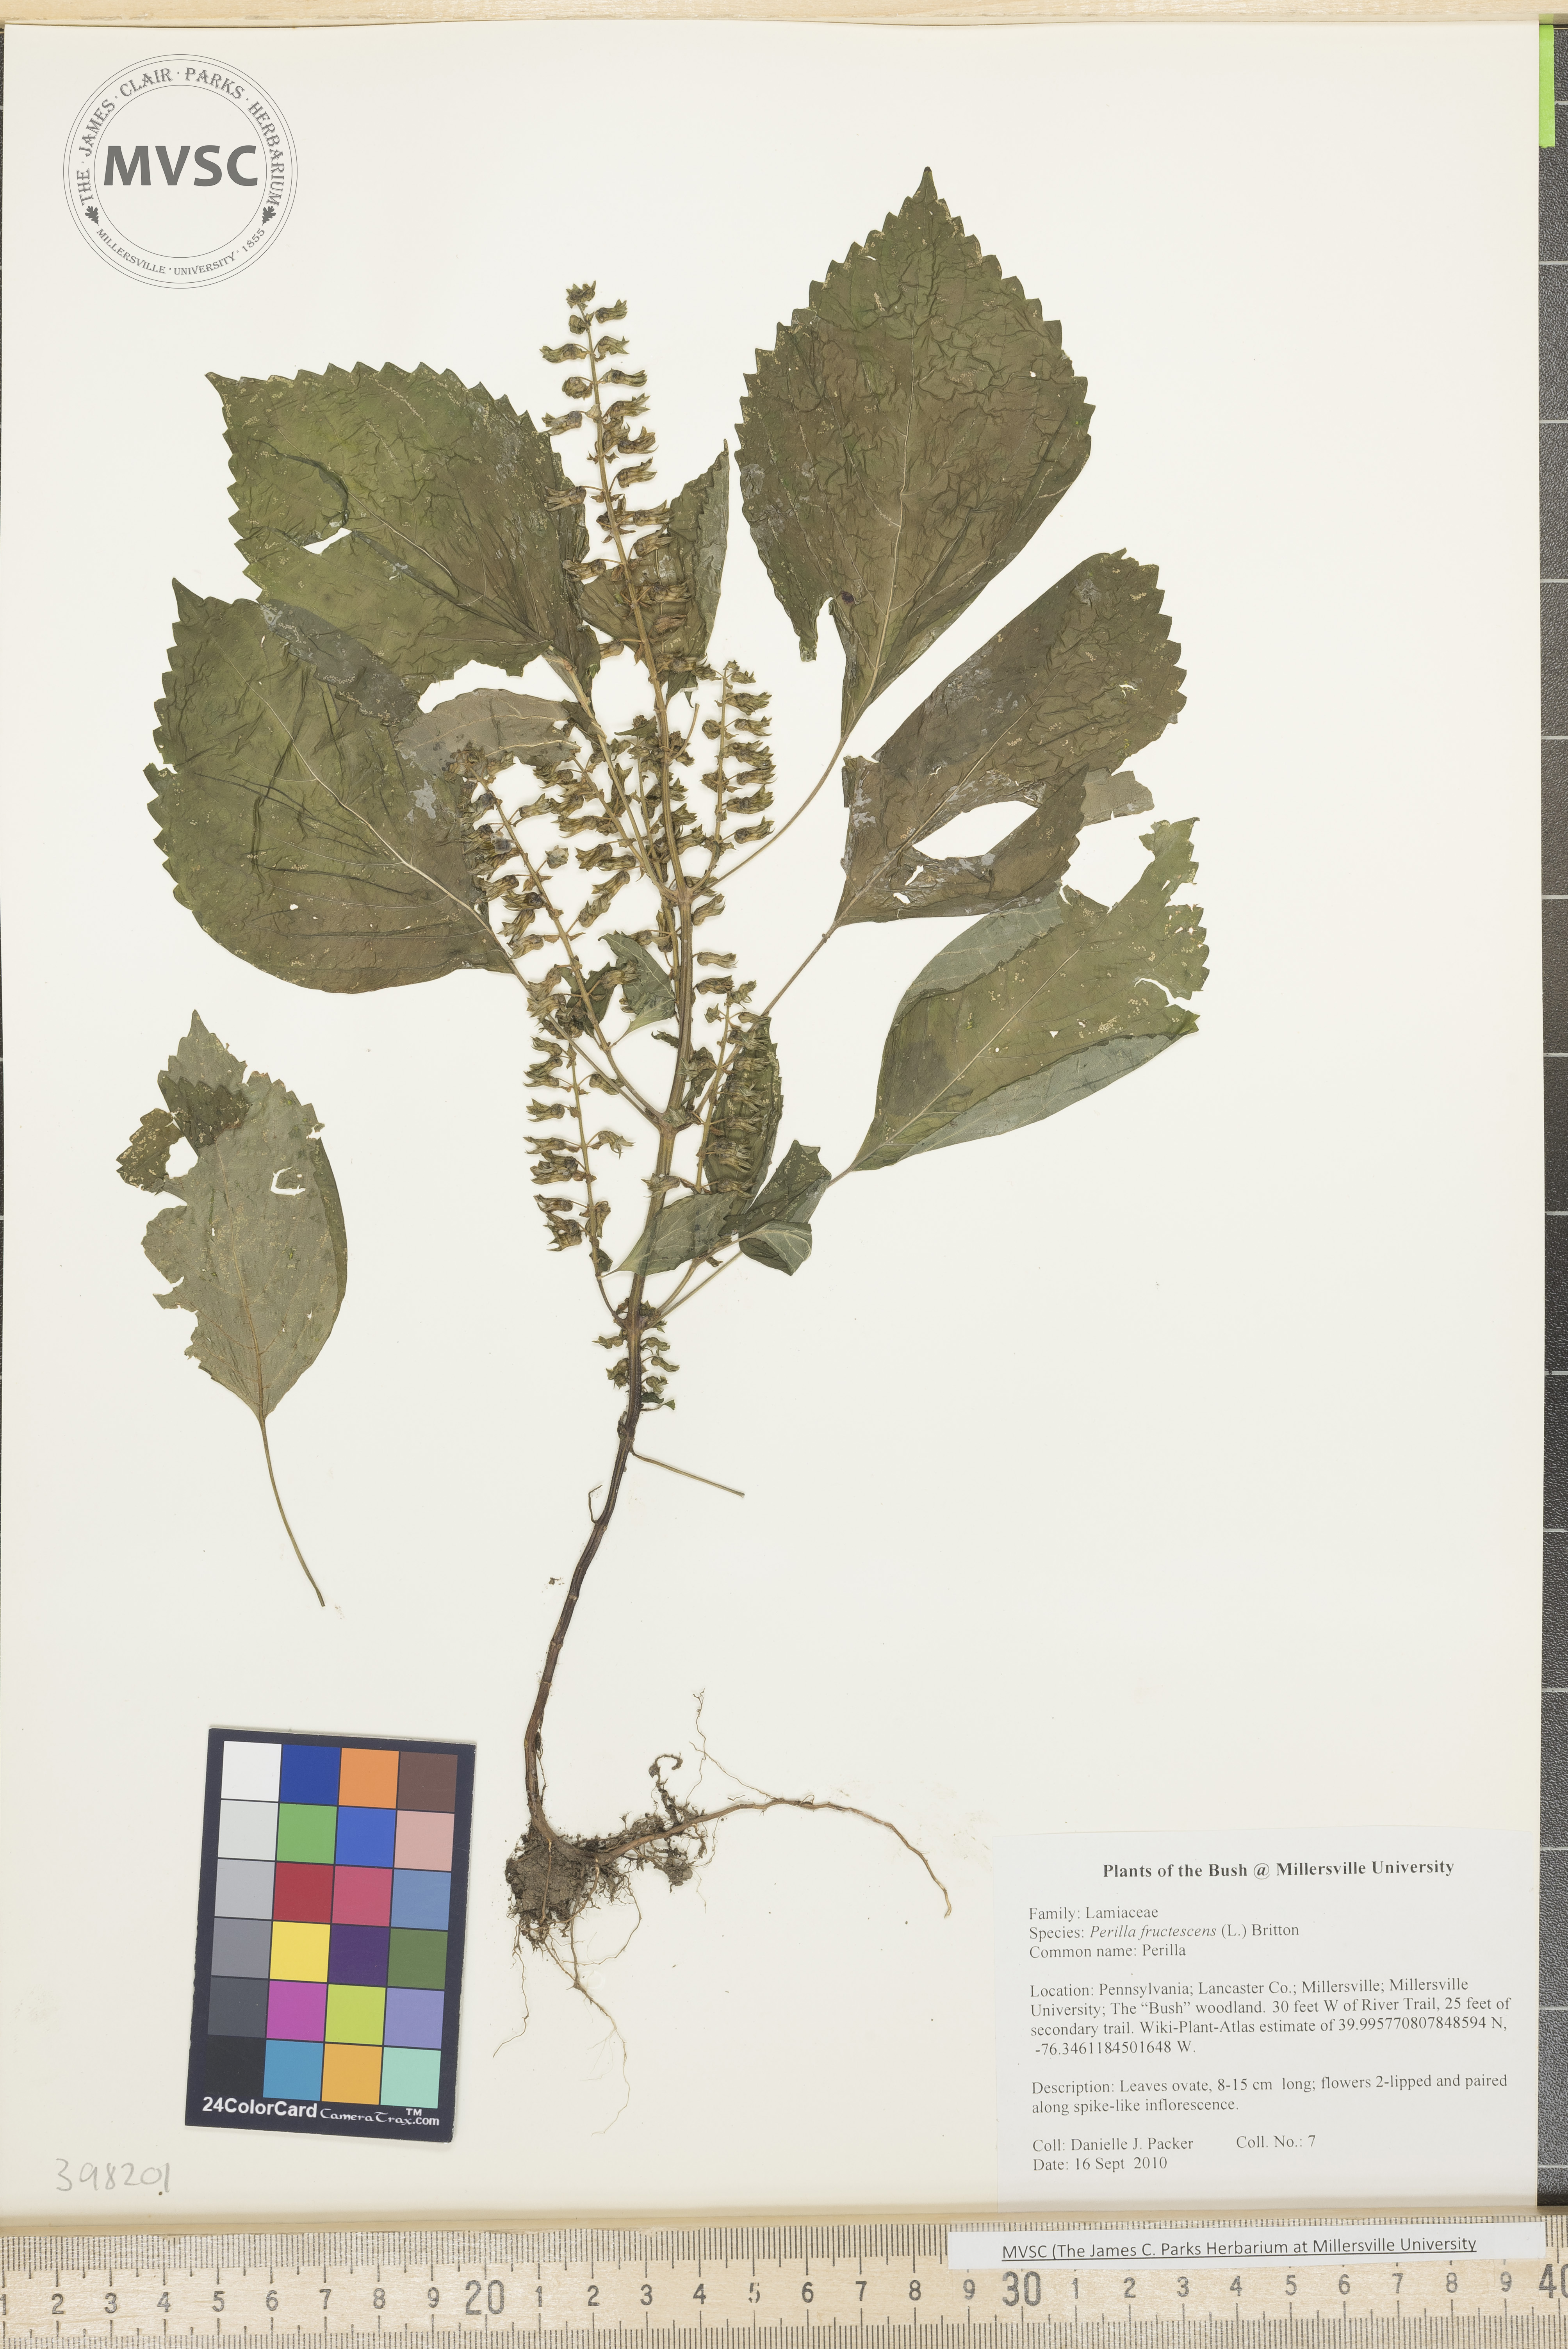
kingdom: Plantae
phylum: Tracheophyta
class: Magnoliopsida
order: Lamiales
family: Lamiaceae
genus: Perilla
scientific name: Perilla frutescens
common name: Perilla
